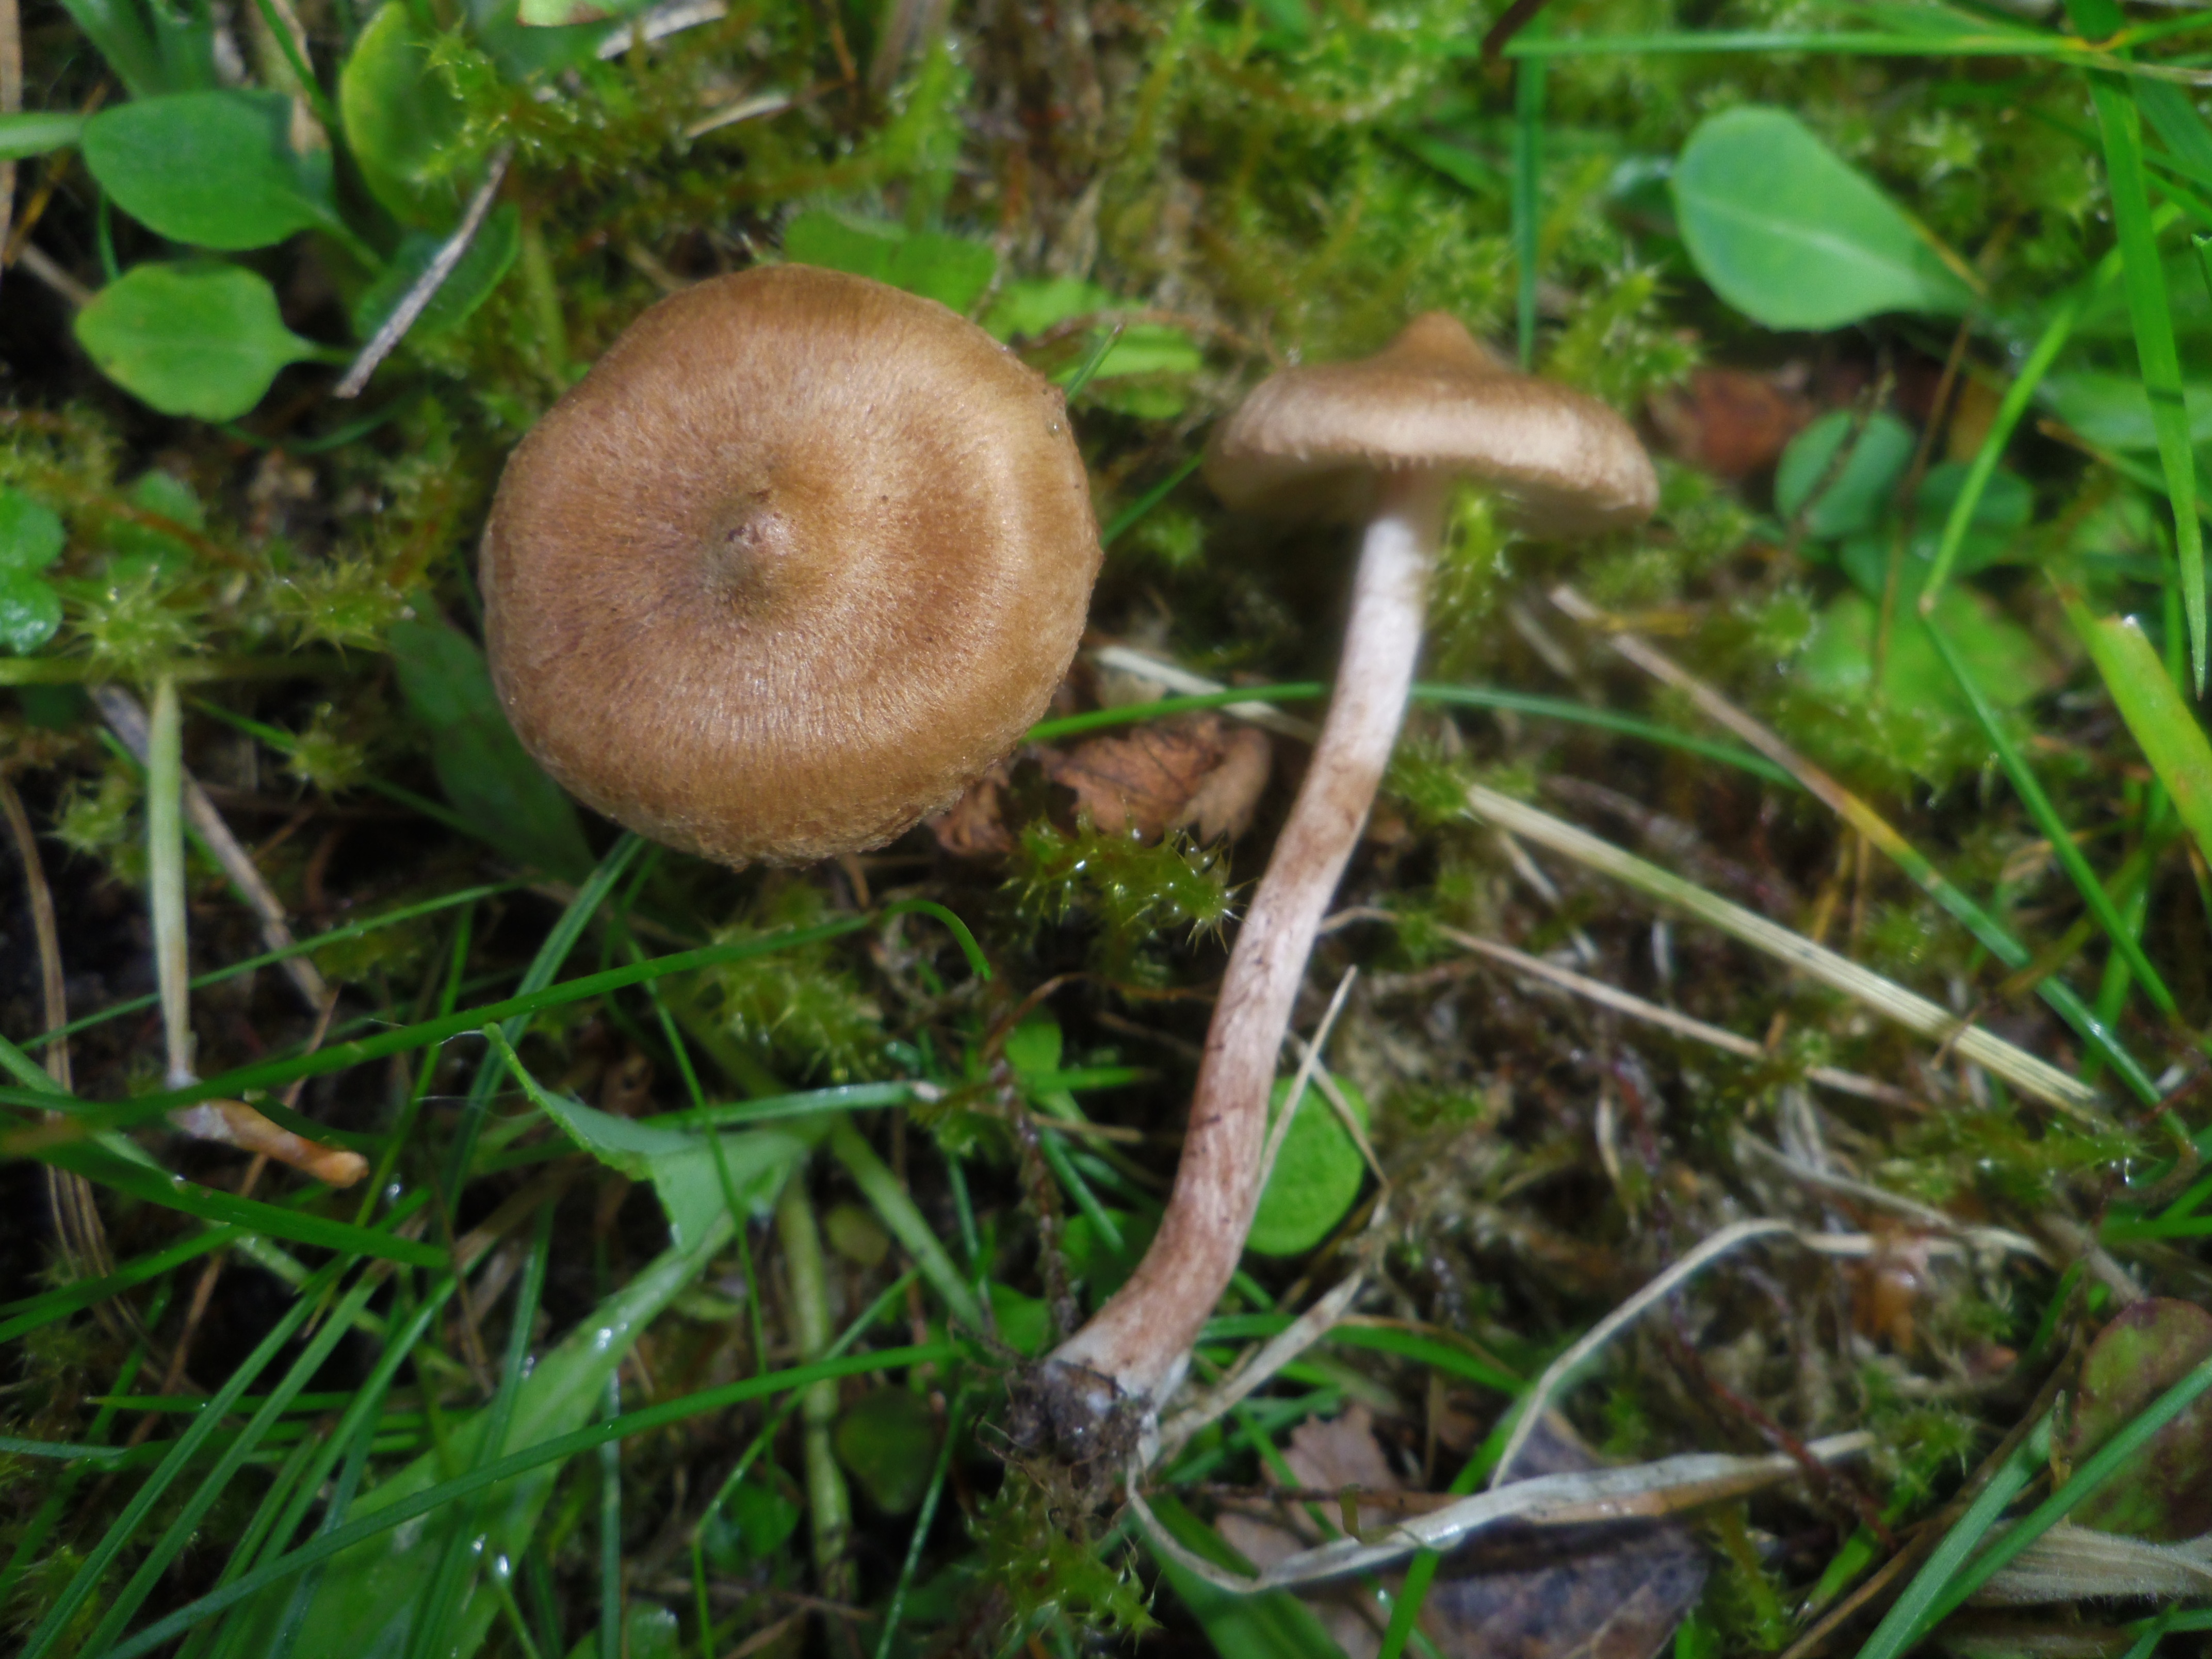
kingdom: Fungi
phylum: Basidiomycota
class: Agaricomycetes
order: Agaricales
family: Inocybaceae
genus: Inocybe
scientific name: Inocybe
